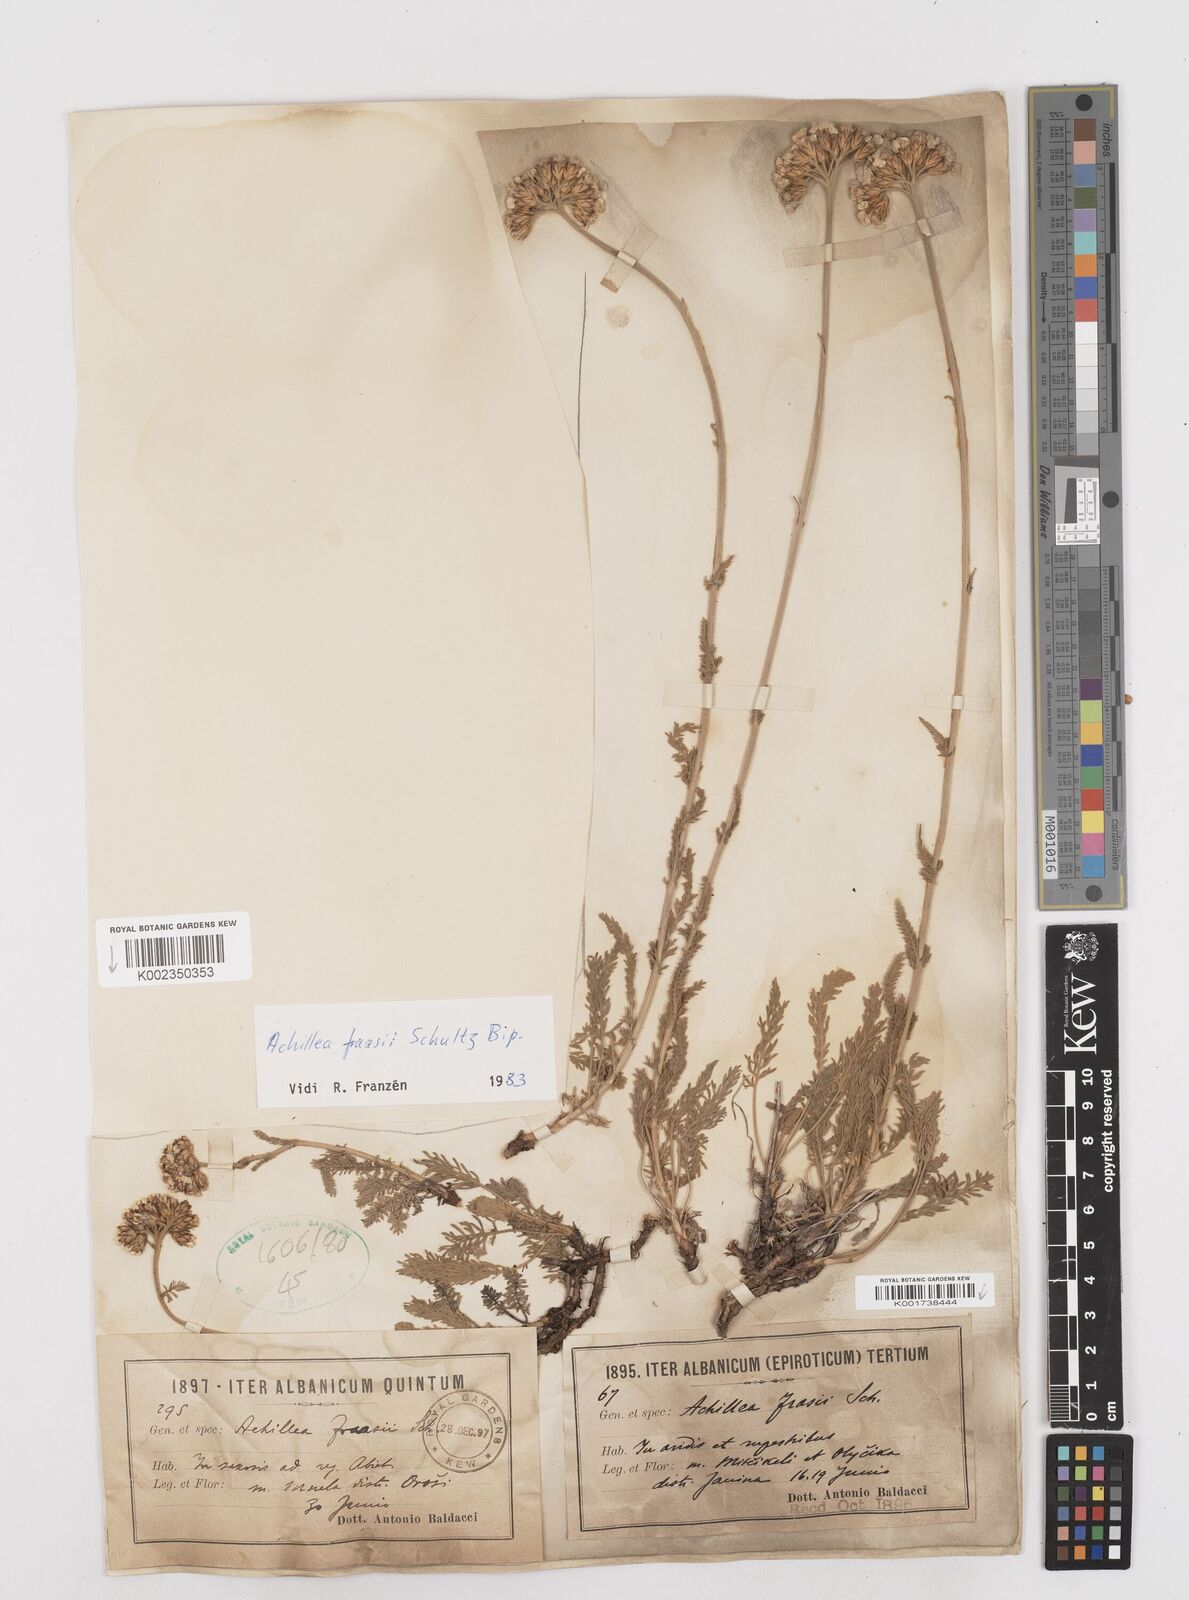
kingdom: Plantae
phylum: Tracheophyta
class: Magnoliopsida
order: Asterales
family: Asteraceae
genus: Achillea
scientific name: Achillea fraasii
